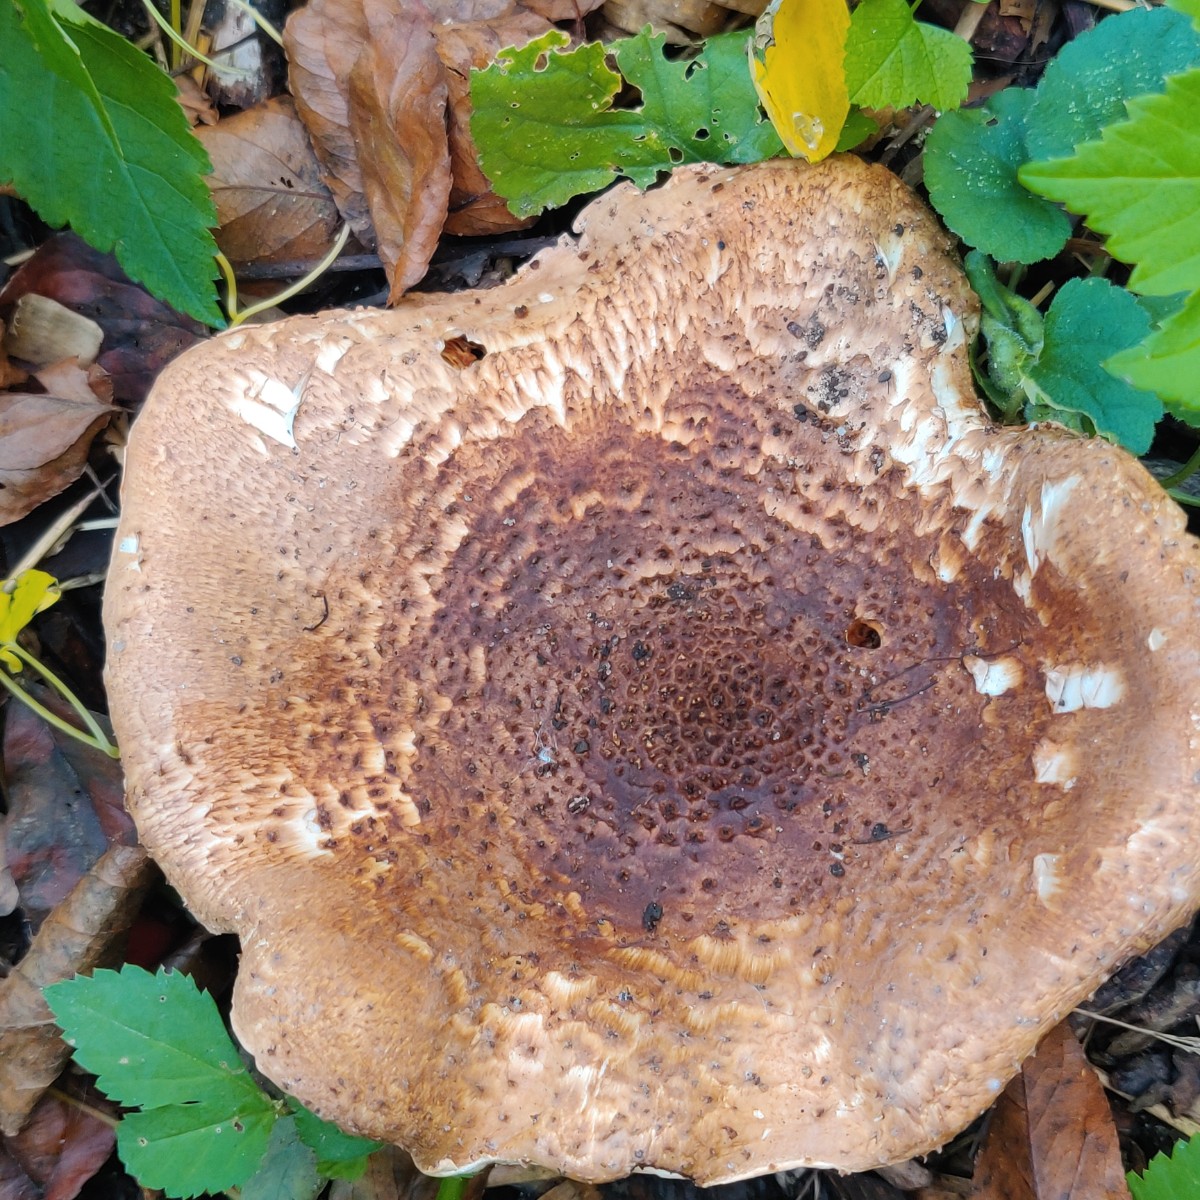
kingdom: Fungi
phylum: Basidiomycota
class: Agaricomycetes
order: Agaricales
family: Agaricaceae
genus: Echinoderma
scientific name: Echinoderma asperum
